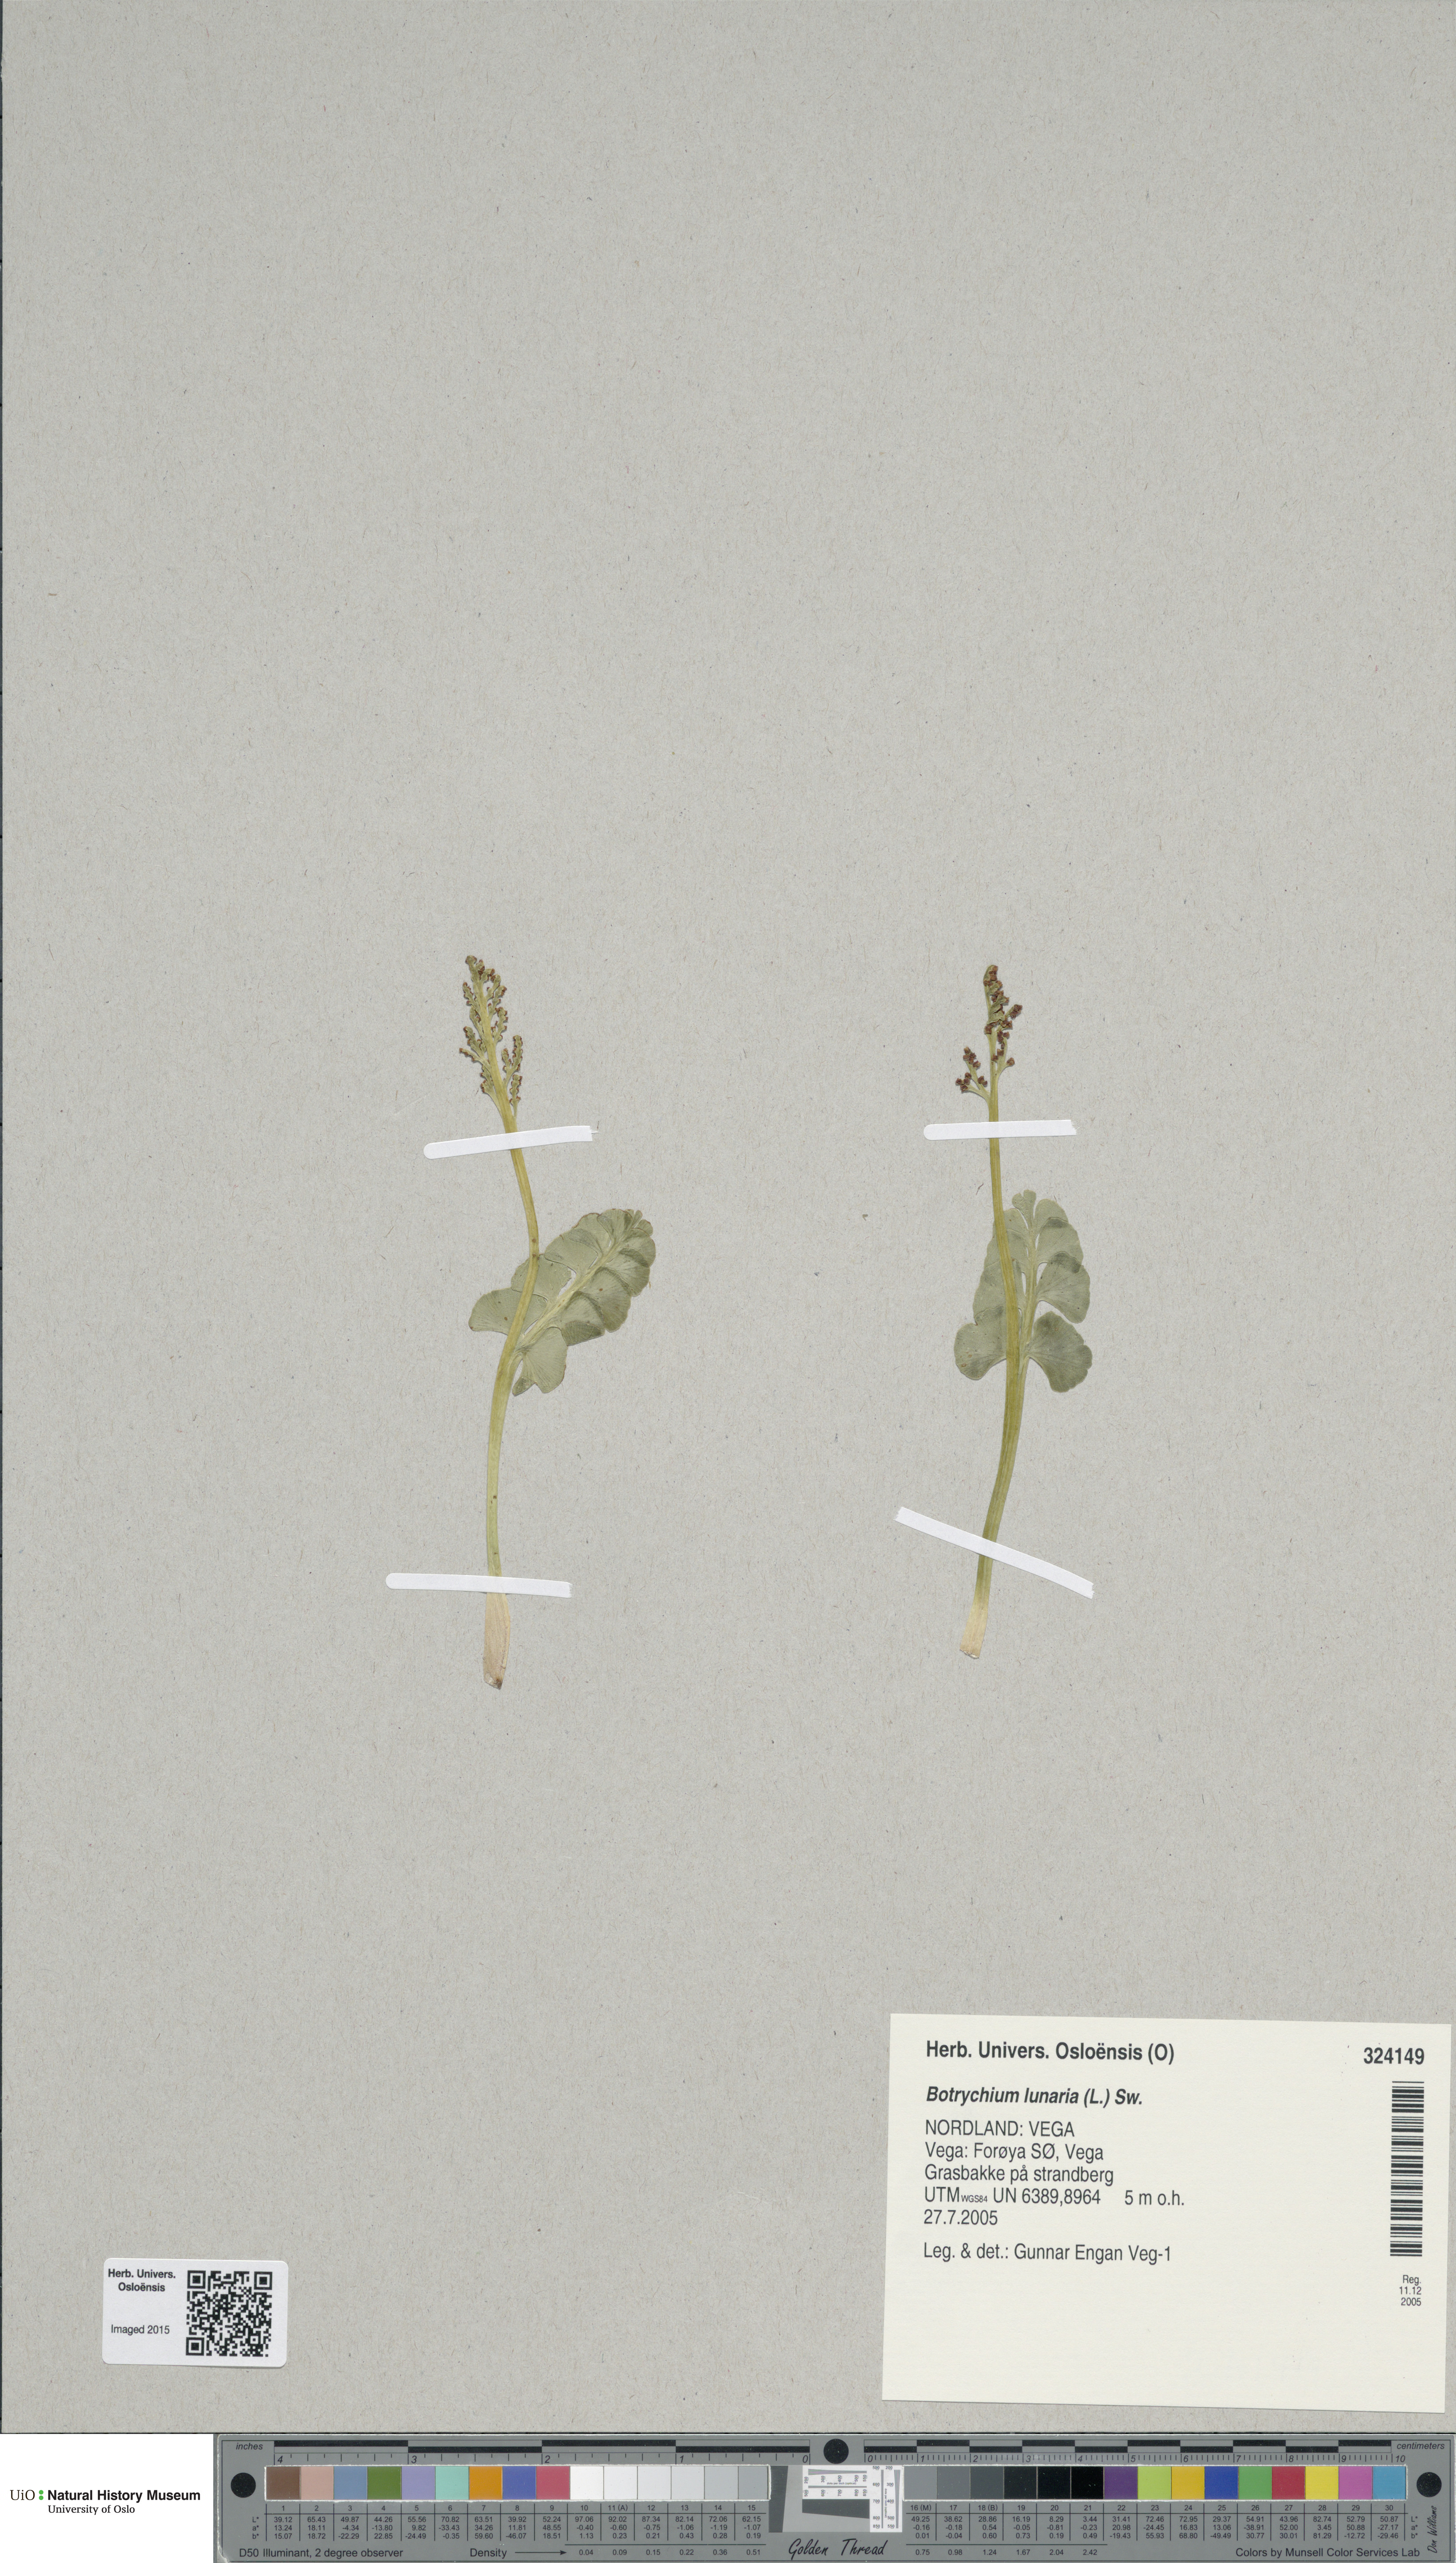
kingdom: Plantae
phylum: Tracheophyta
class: Polypodiopsida
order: Ophioglossales
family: Ophioglossaceae
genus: Botrychium
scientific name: Botrychium lunaria
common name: Moonwort
